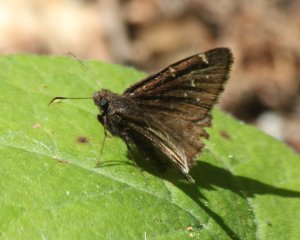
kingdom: Animalia
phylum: Arthropoda
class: Insecta
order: Lepidoptera
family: Hesperiidae
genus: Autochton
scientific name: Autochton
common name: Northern Cloudywing
